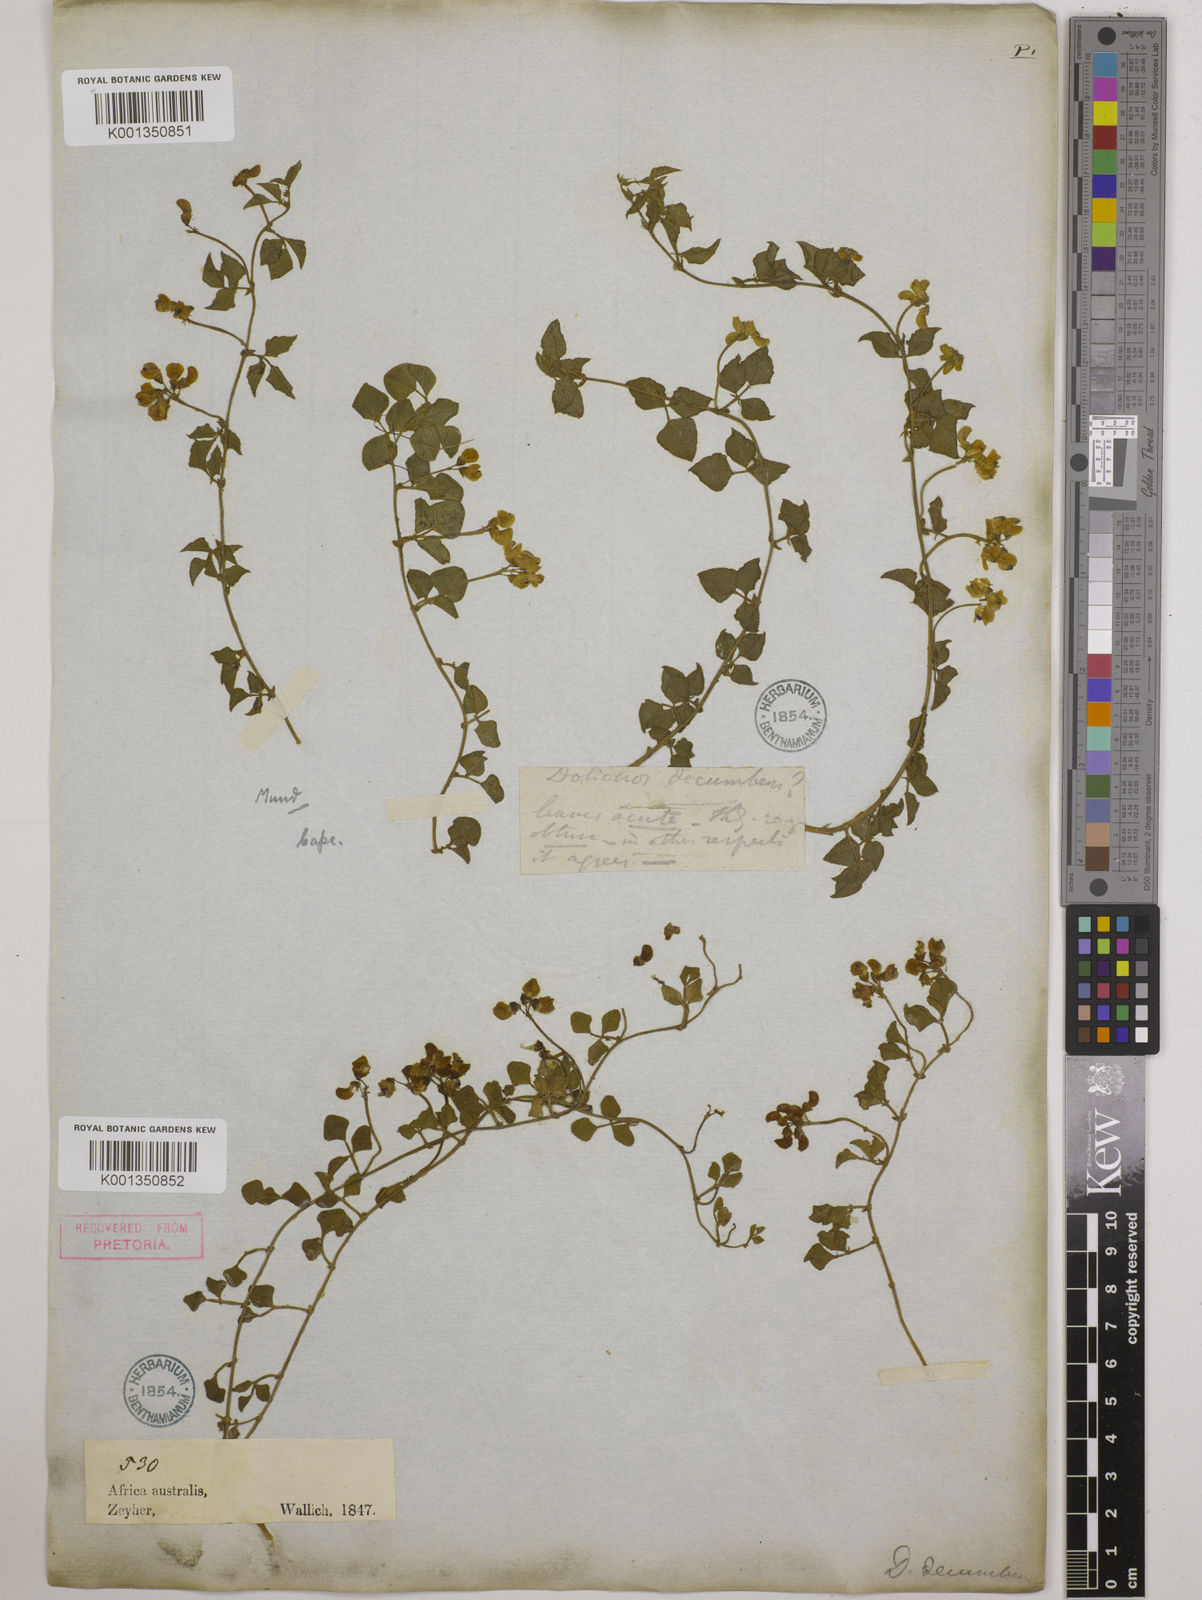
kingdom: Plantae
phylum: Tracheophyta
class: Magnoliopsida
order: Fabales
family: Fabaceae
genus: Dolichos
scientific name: Dolichos decumbens
